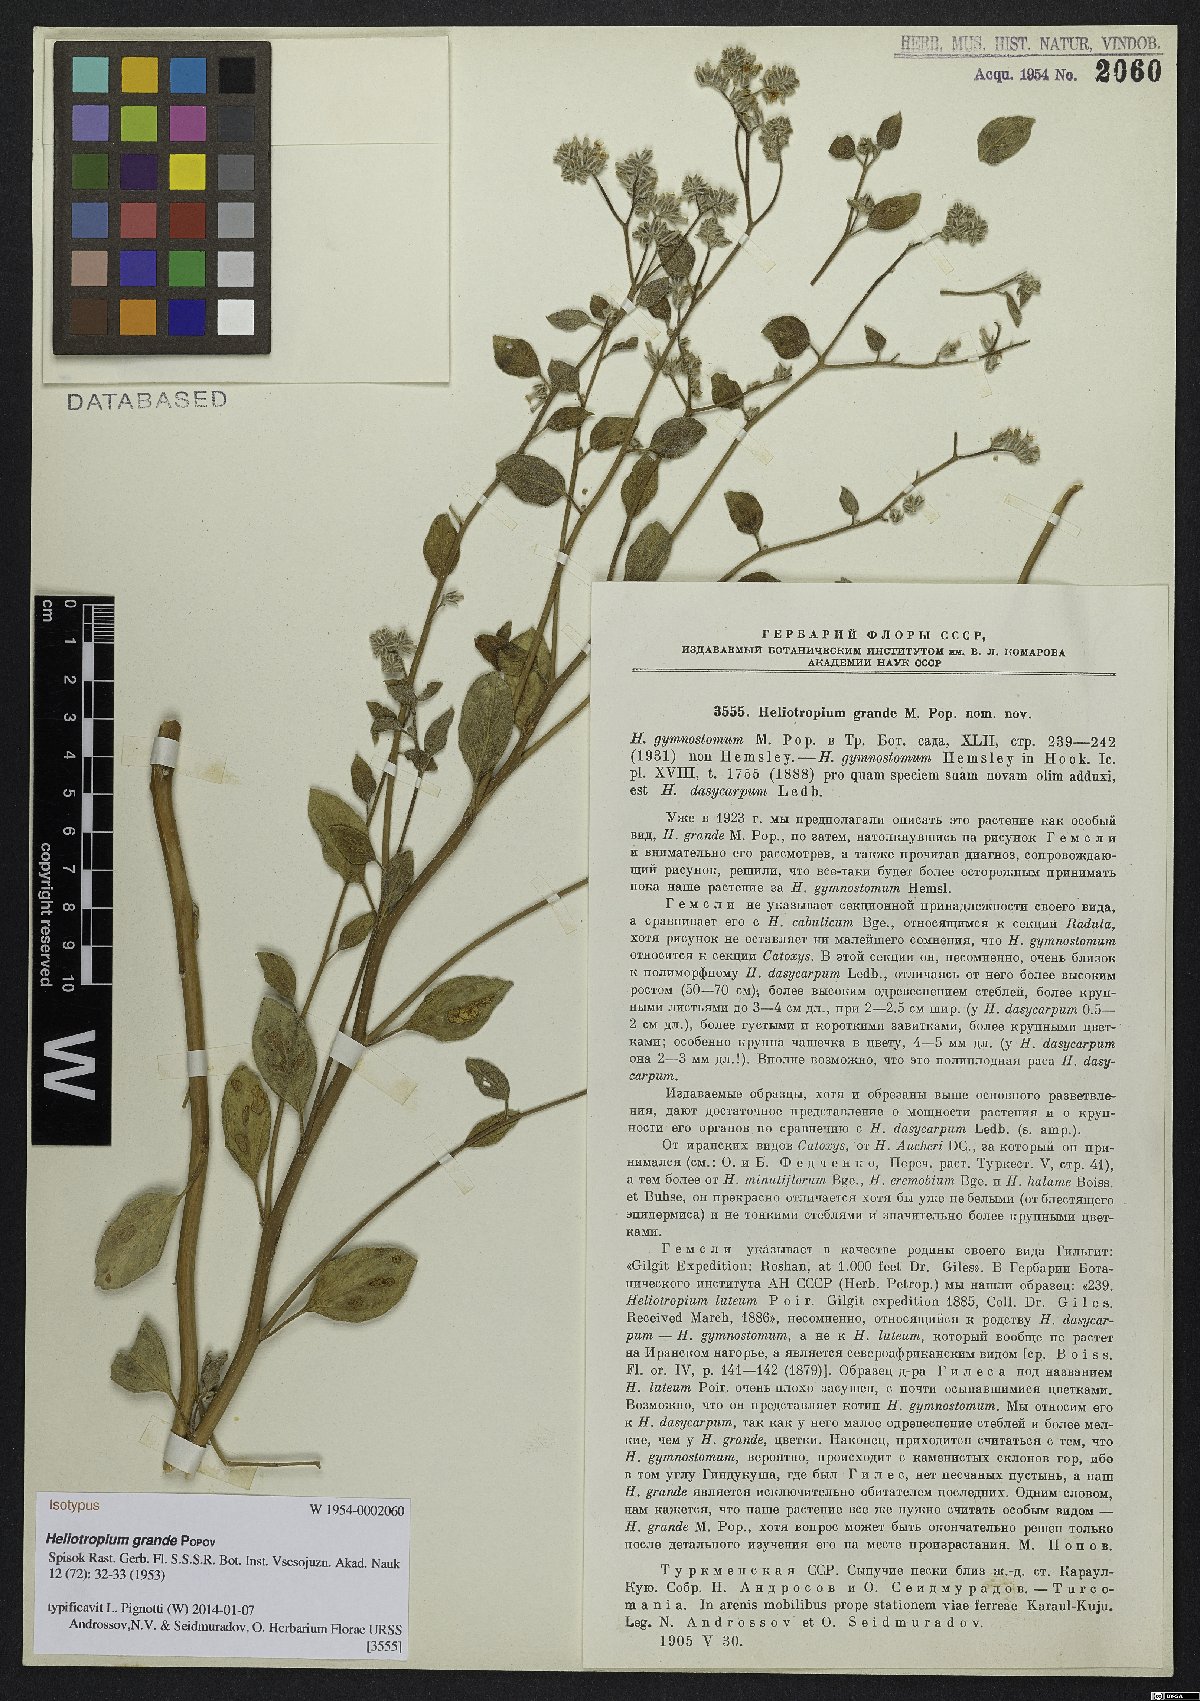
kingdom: Plantae
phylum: Tracheophyta
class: Magnoliopsida
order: Boraginales
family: Heliotropiaceae
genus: Heliotropium
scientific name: Heliotropium grande
